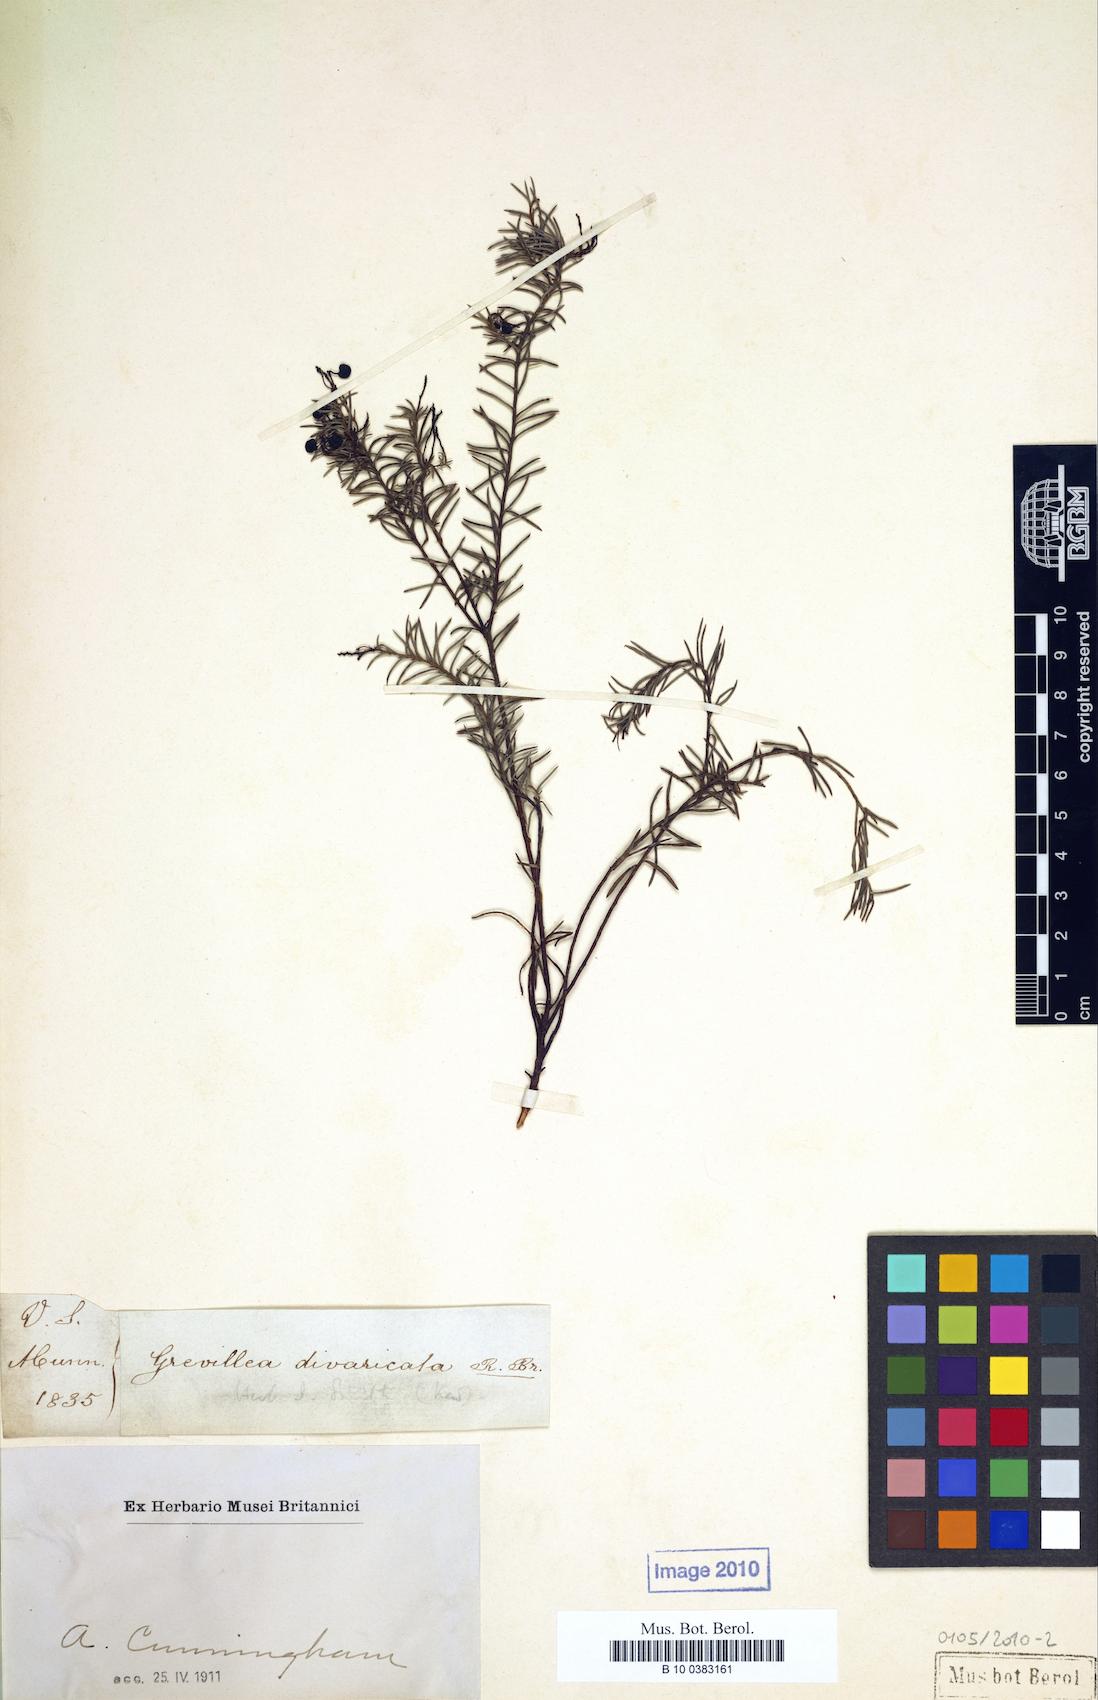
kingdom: Plantae
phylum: Tracheophyta
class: Magnoliopsida
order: Proteales
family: Proteaceae
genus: Grevillea
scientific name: Grevillea divaricata
